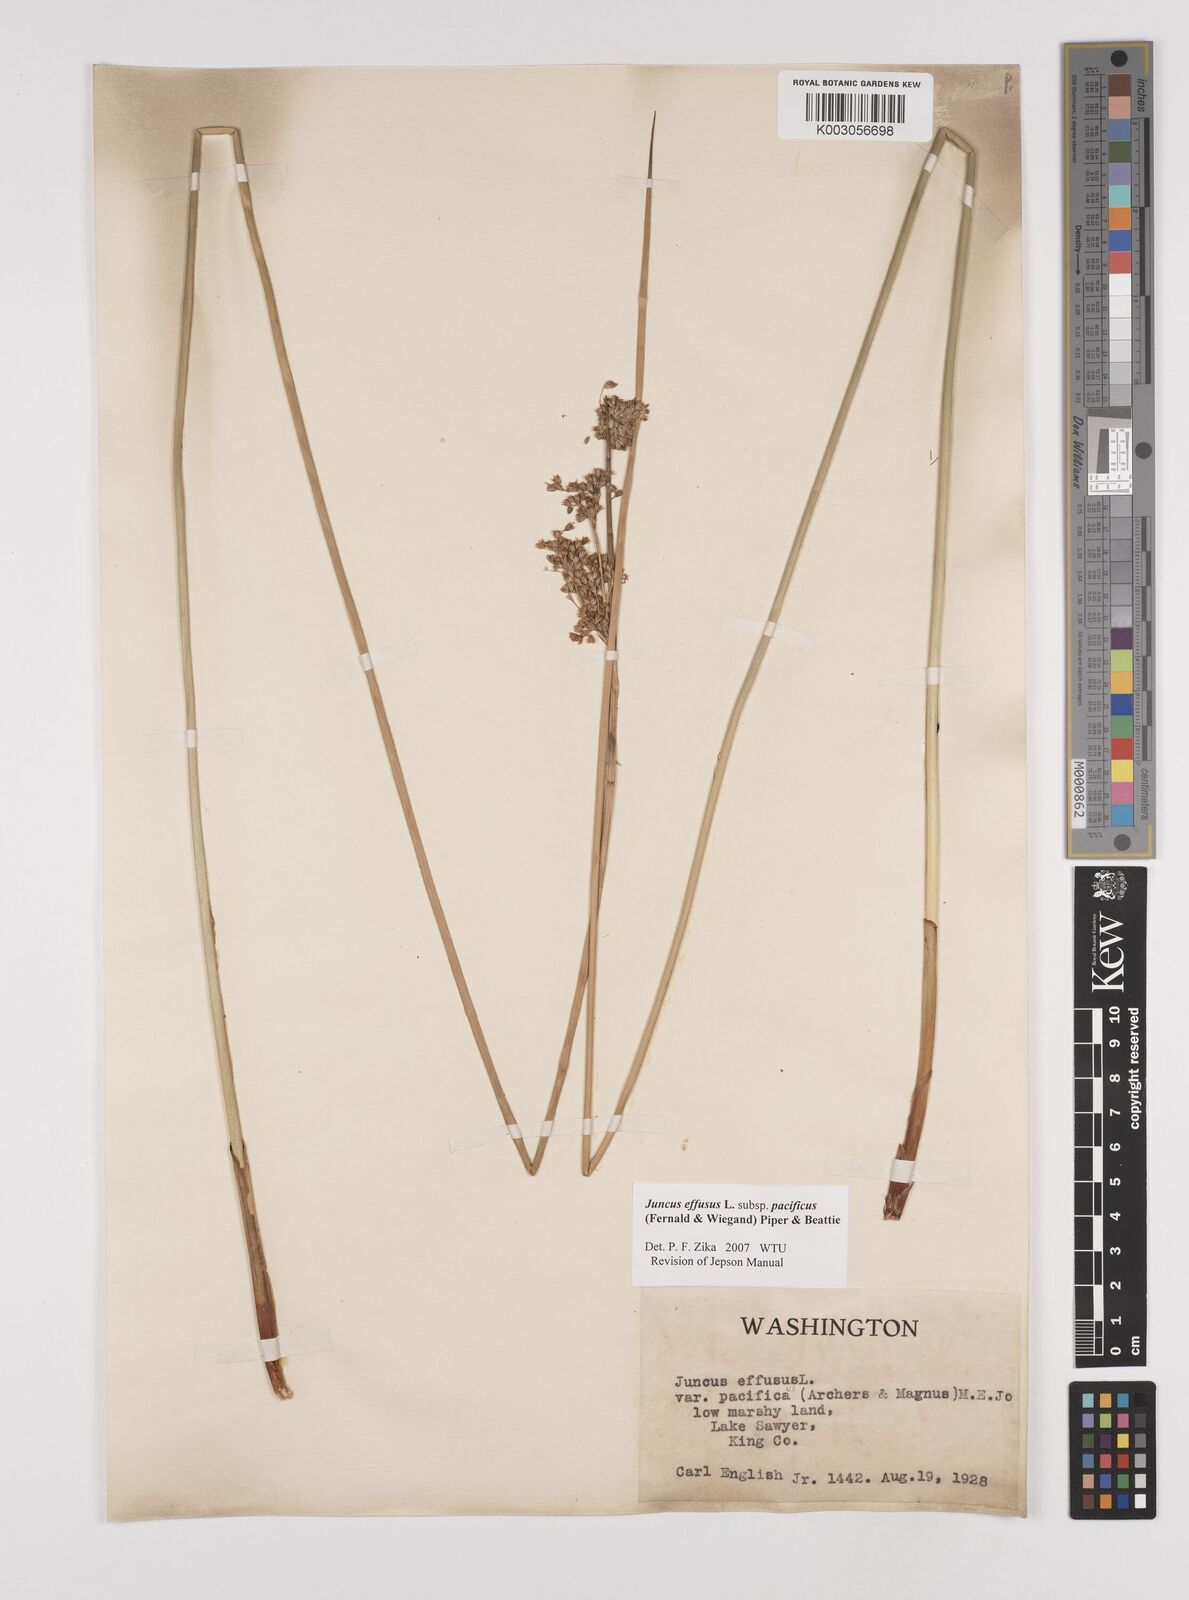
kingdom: Plantae
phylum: Tracheophyta
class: Liliopsida
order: Poales
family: Juncaceae
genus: Juncus
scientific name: Juncus effusus
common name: Soft rush
